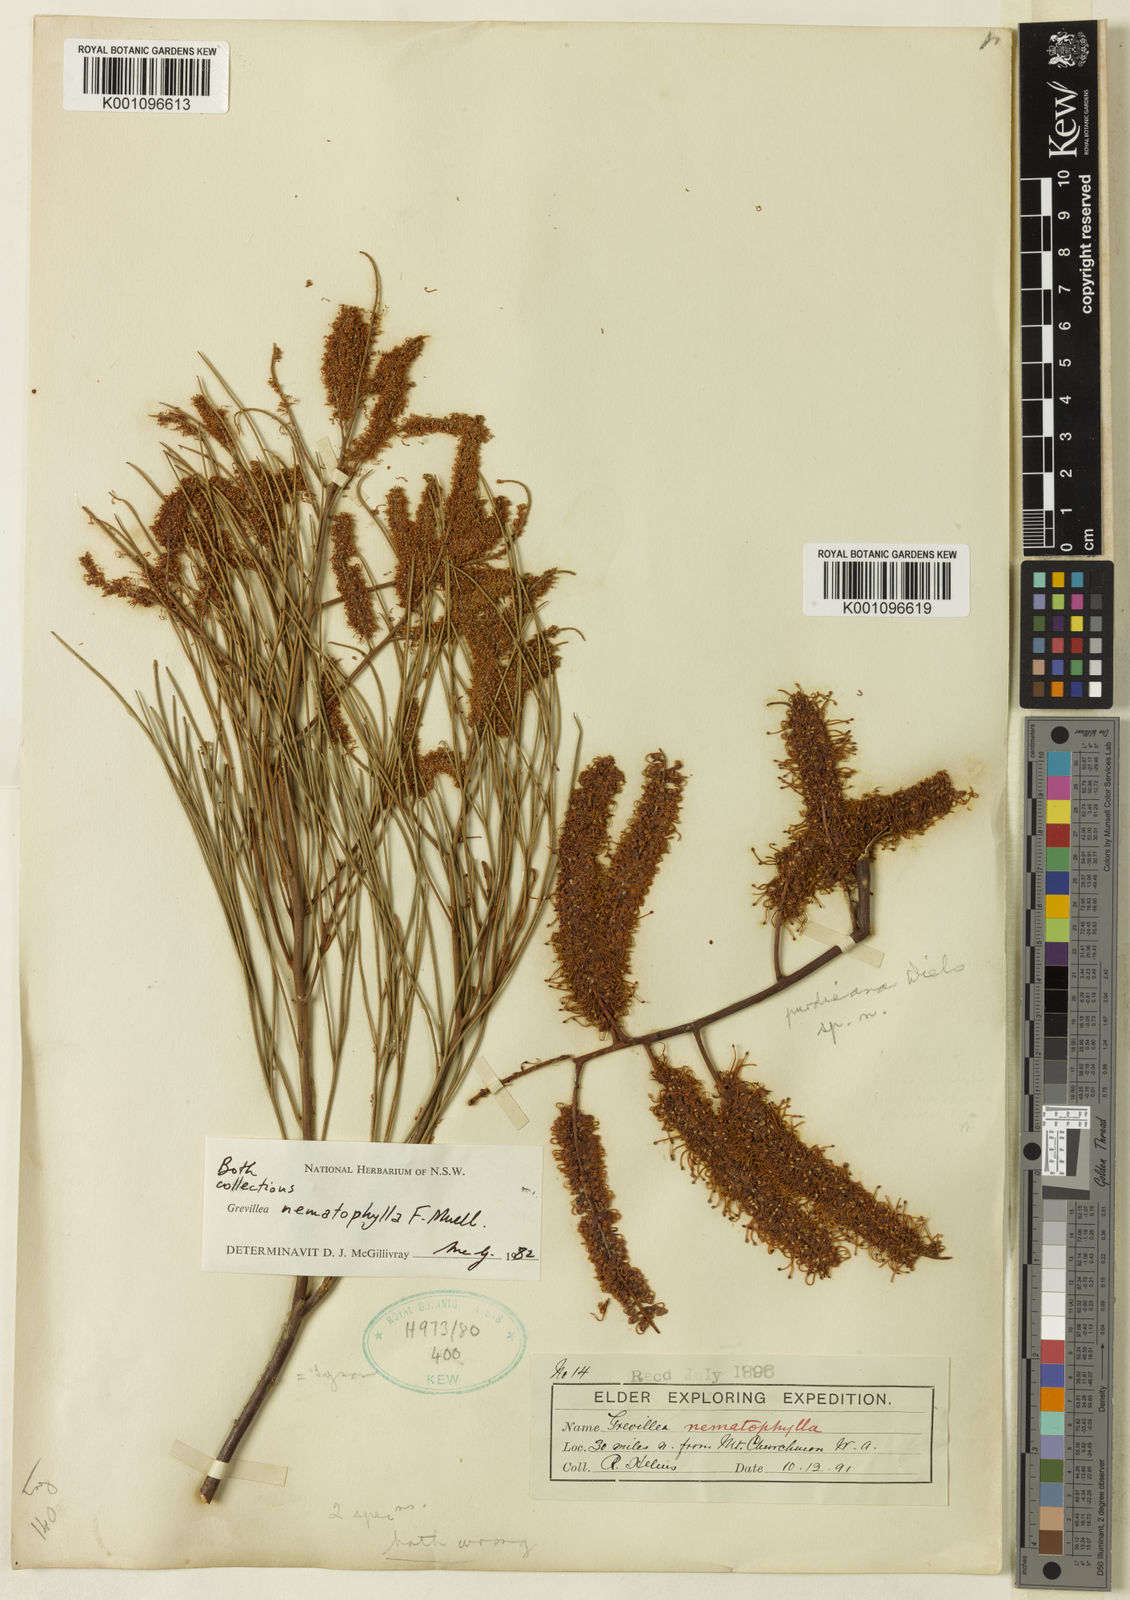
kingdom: Plantae
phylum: Tracheophyta
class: Magnoliopsida
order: Proteales
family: Proteaceae
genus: Grevillea
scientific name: Grevillea nematophylla
